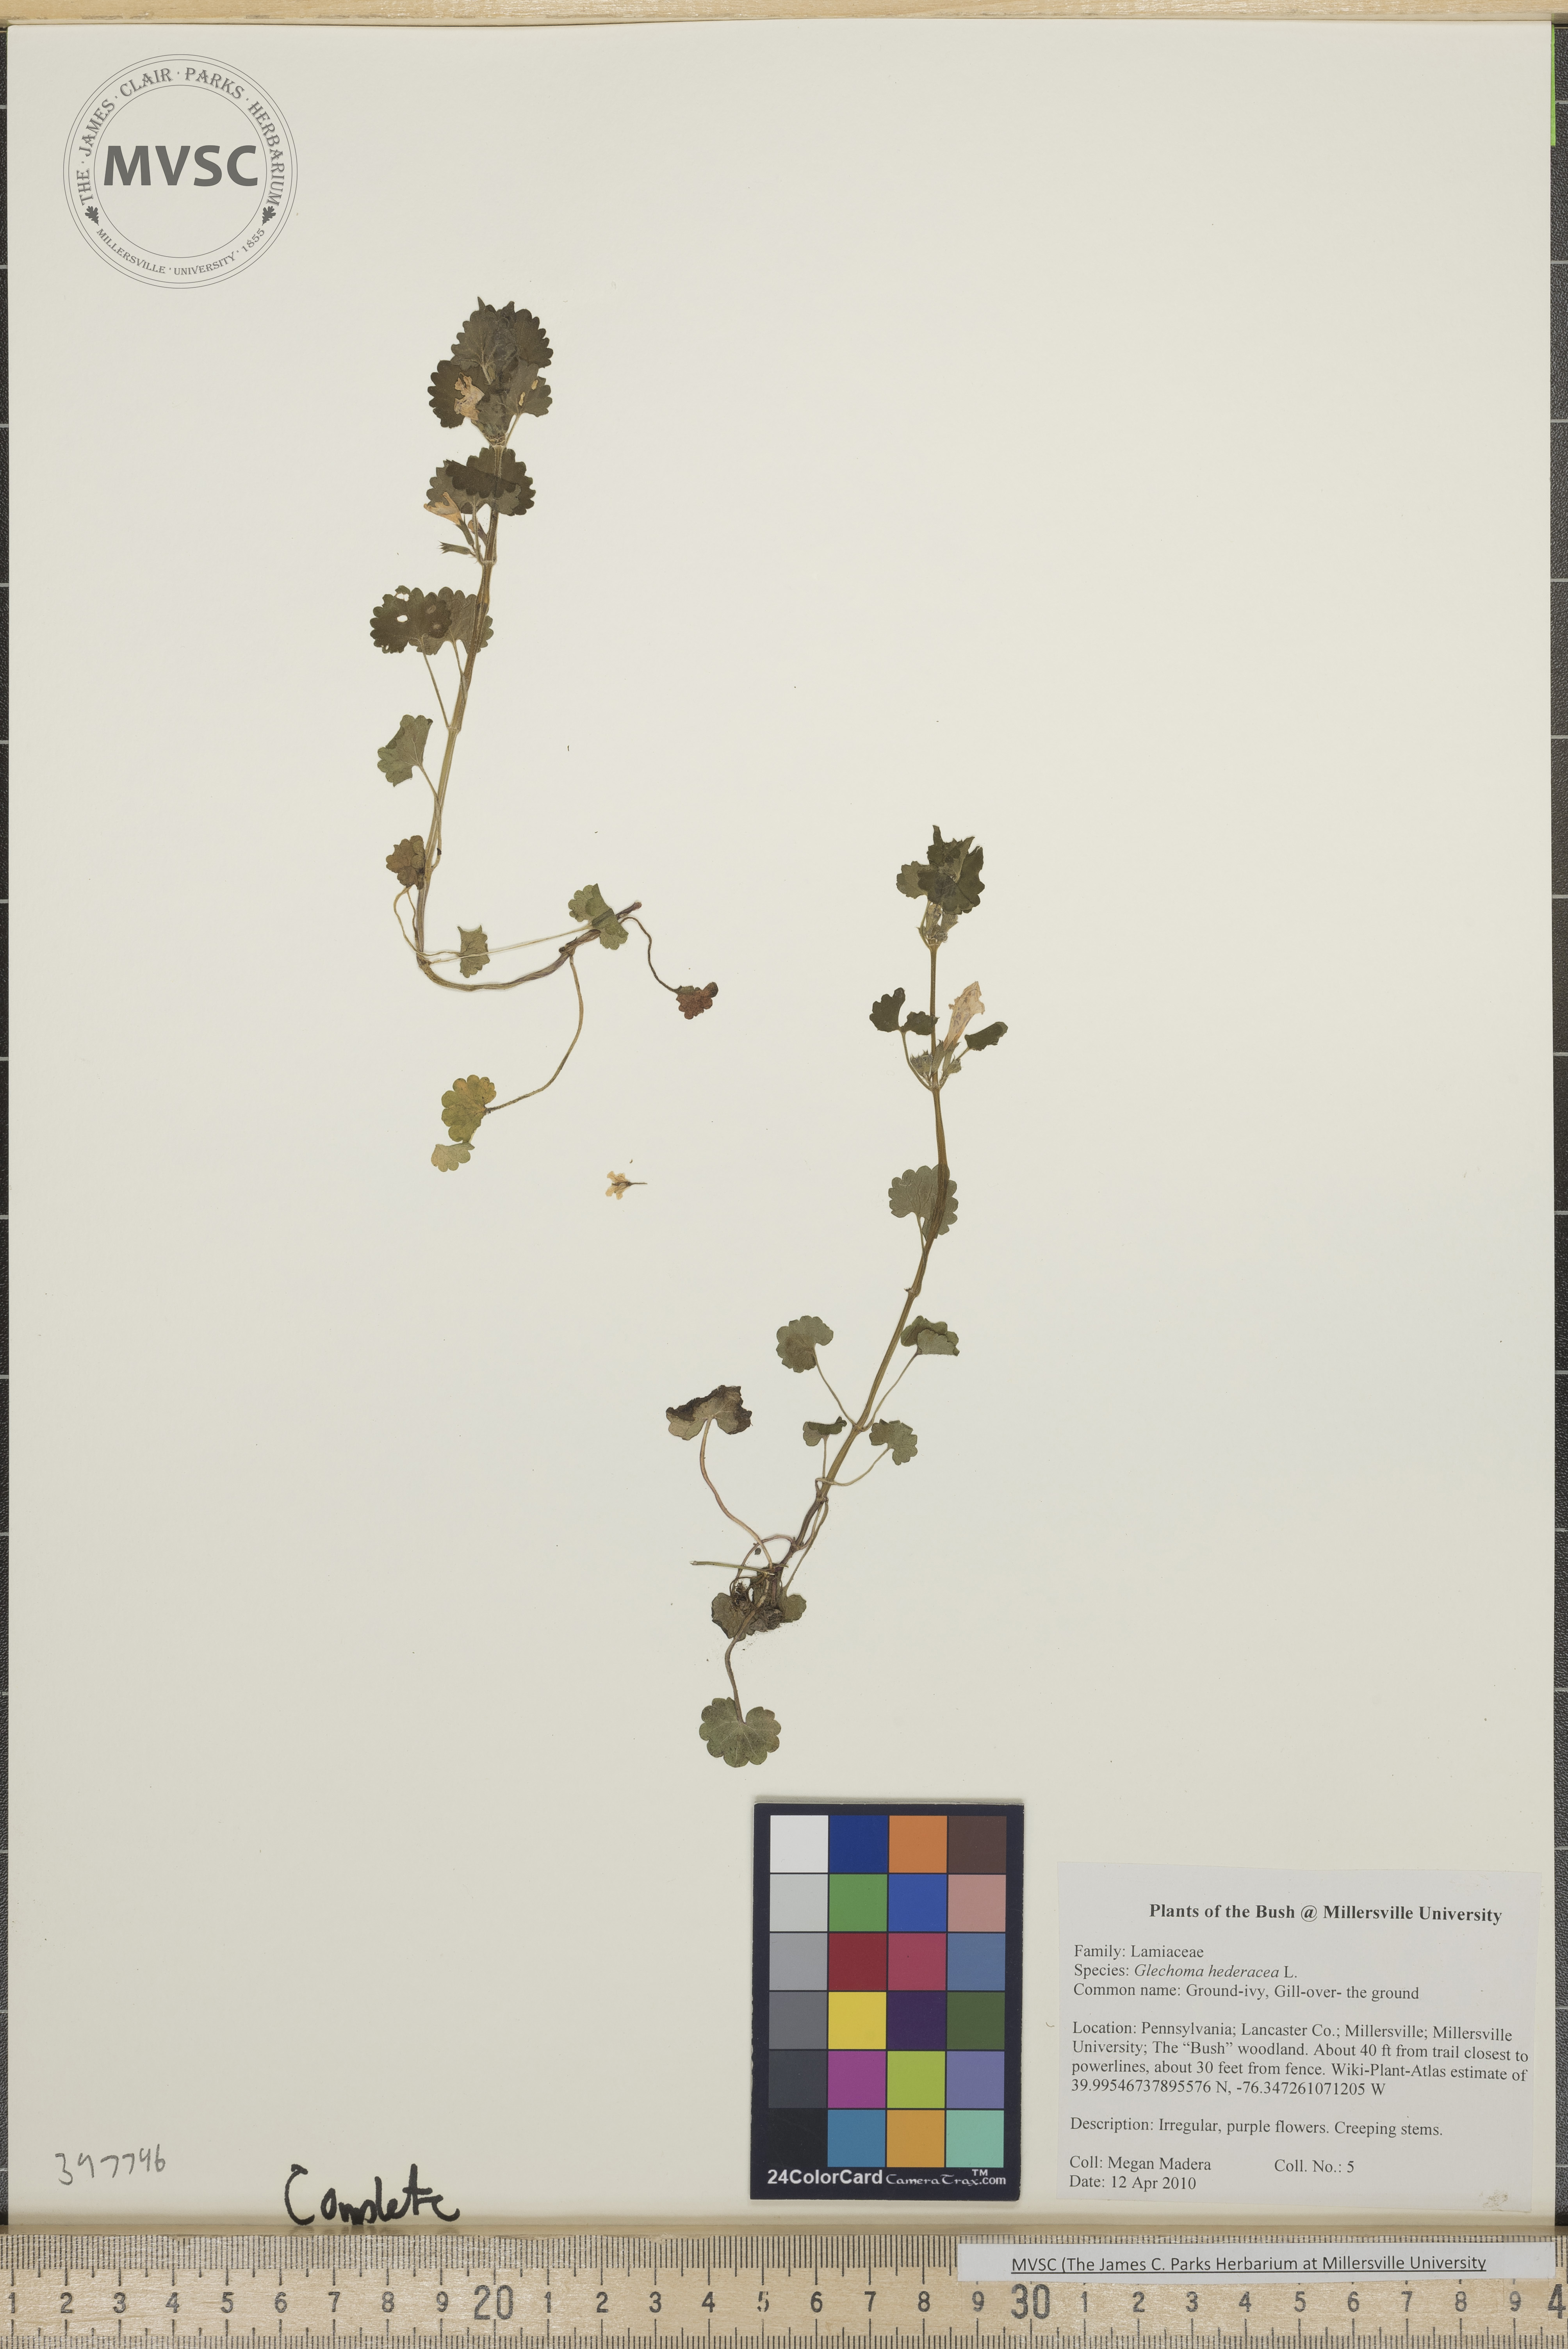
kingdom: Plantae
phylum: Tracheophyta
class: Magnoliopsida
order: Lamiales
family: Lamiaceae
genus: Glechoma
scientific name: Glechoma hederacea
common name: Gill-over-the-ground
